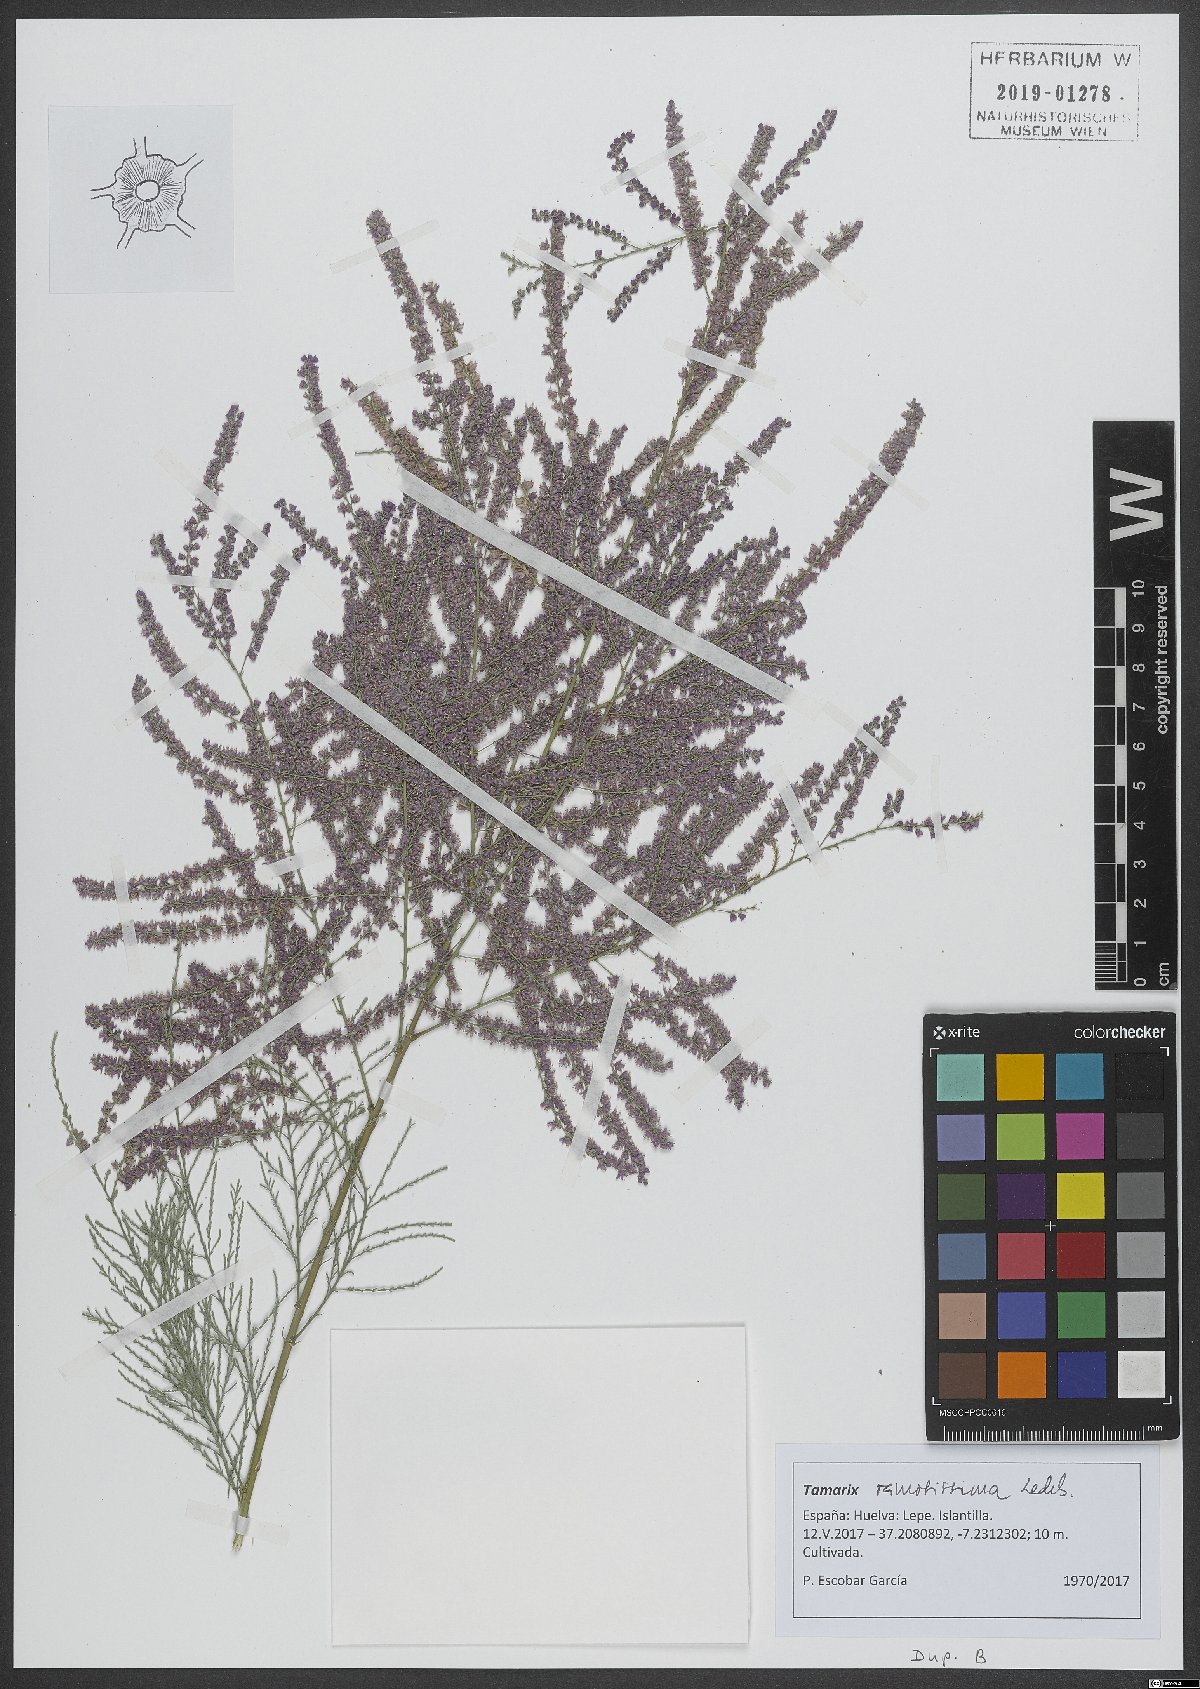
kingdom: Plantae
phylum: Tracheophyta
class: Magnoliopsida
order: Caryophyllales
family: Tamaricaceae
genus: Tamarix
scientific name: Tamarix ramosissima
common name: Pink tamarisk
